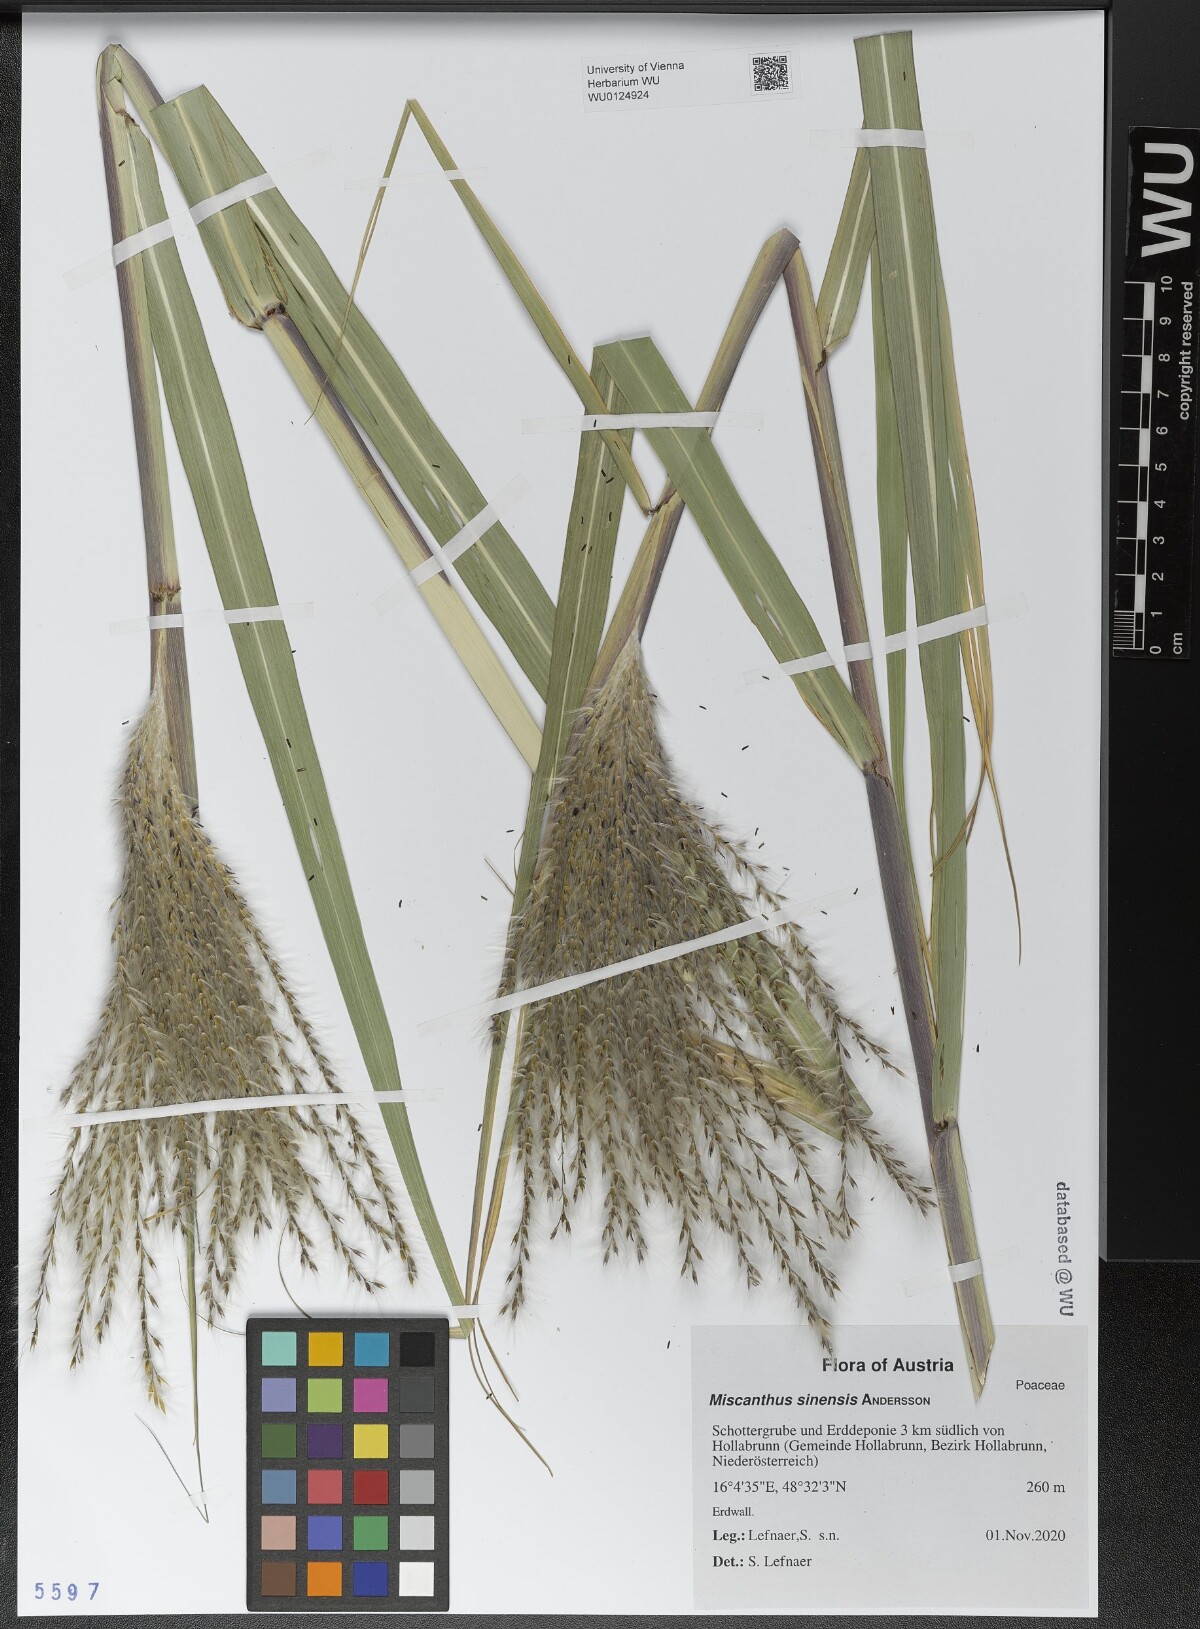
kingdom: Plantae
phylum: Tracheophyta
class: Liliopsida
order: Poales
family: Poaceae
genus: Miscanthus
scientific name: Miscanthus sinensis
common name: Chinese silvergrass
